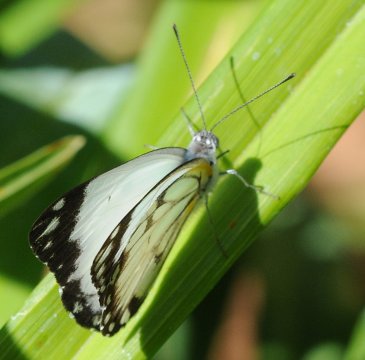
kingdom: Animalia
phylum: Arthropoda
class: Insecta
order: Lepidoptera
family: Pieridae
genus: Belenois
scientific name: Belenois creona
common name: African Caper
